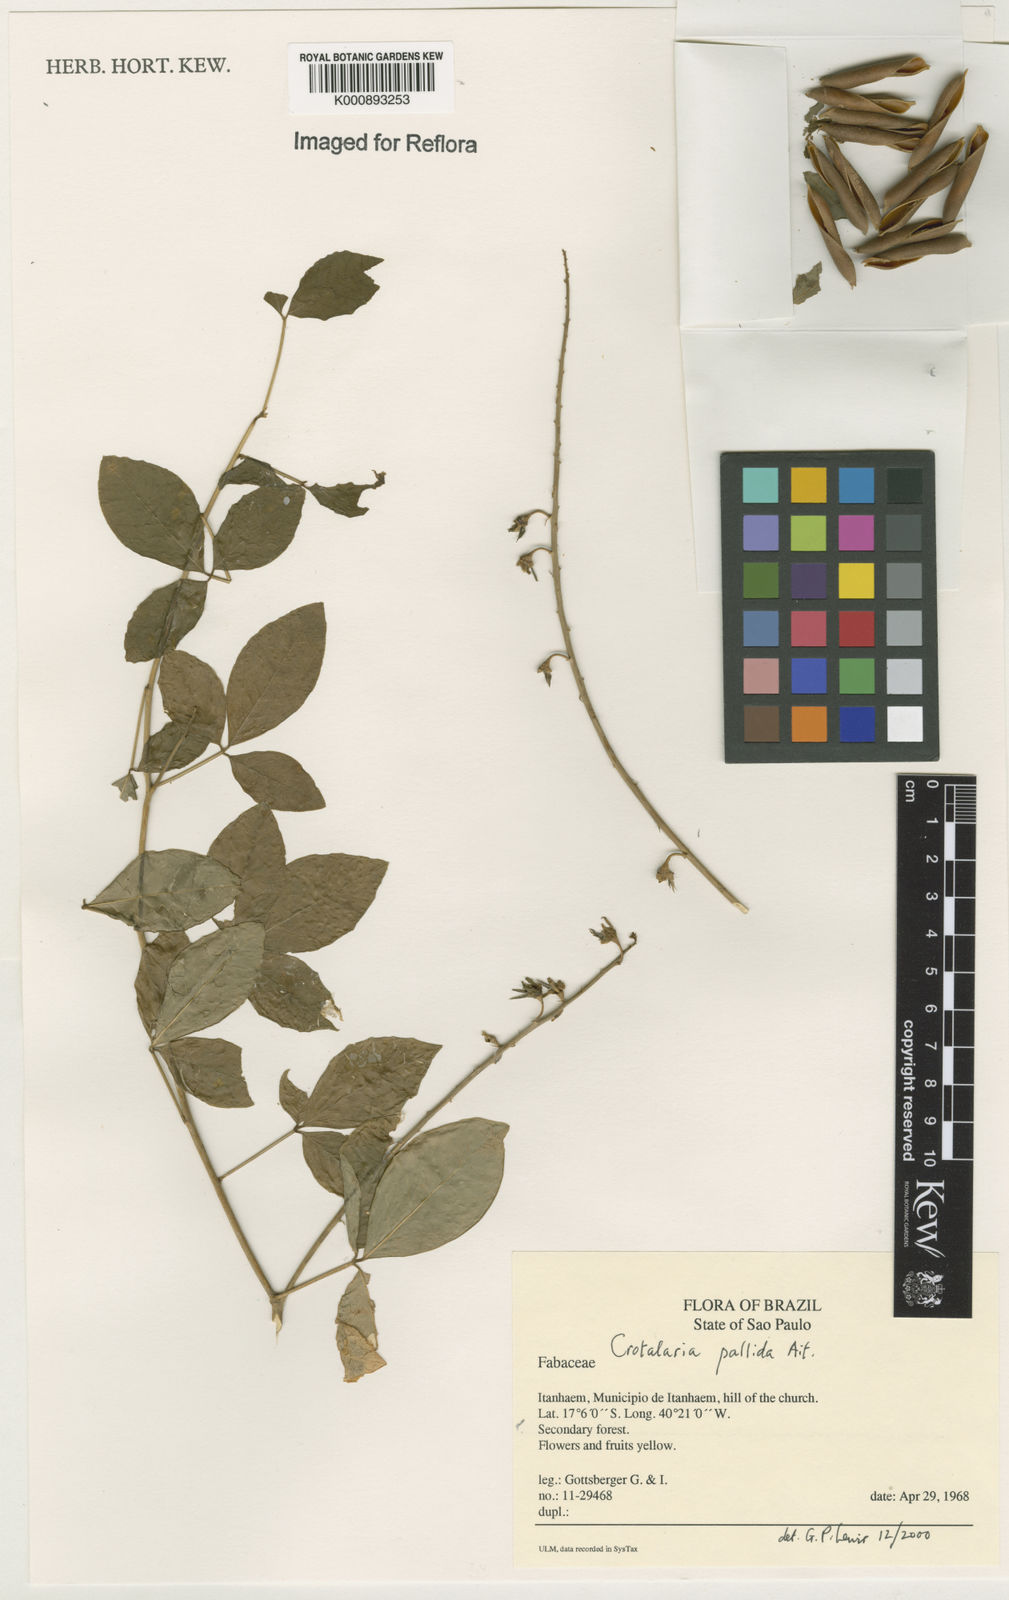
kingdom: Plantae
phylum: Tracheophyta
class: Magnoliopsida
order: Fabales
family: Fabaceae
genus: Crotalaria
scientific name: Crotalaria pallida
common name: Smooth rattlebox
